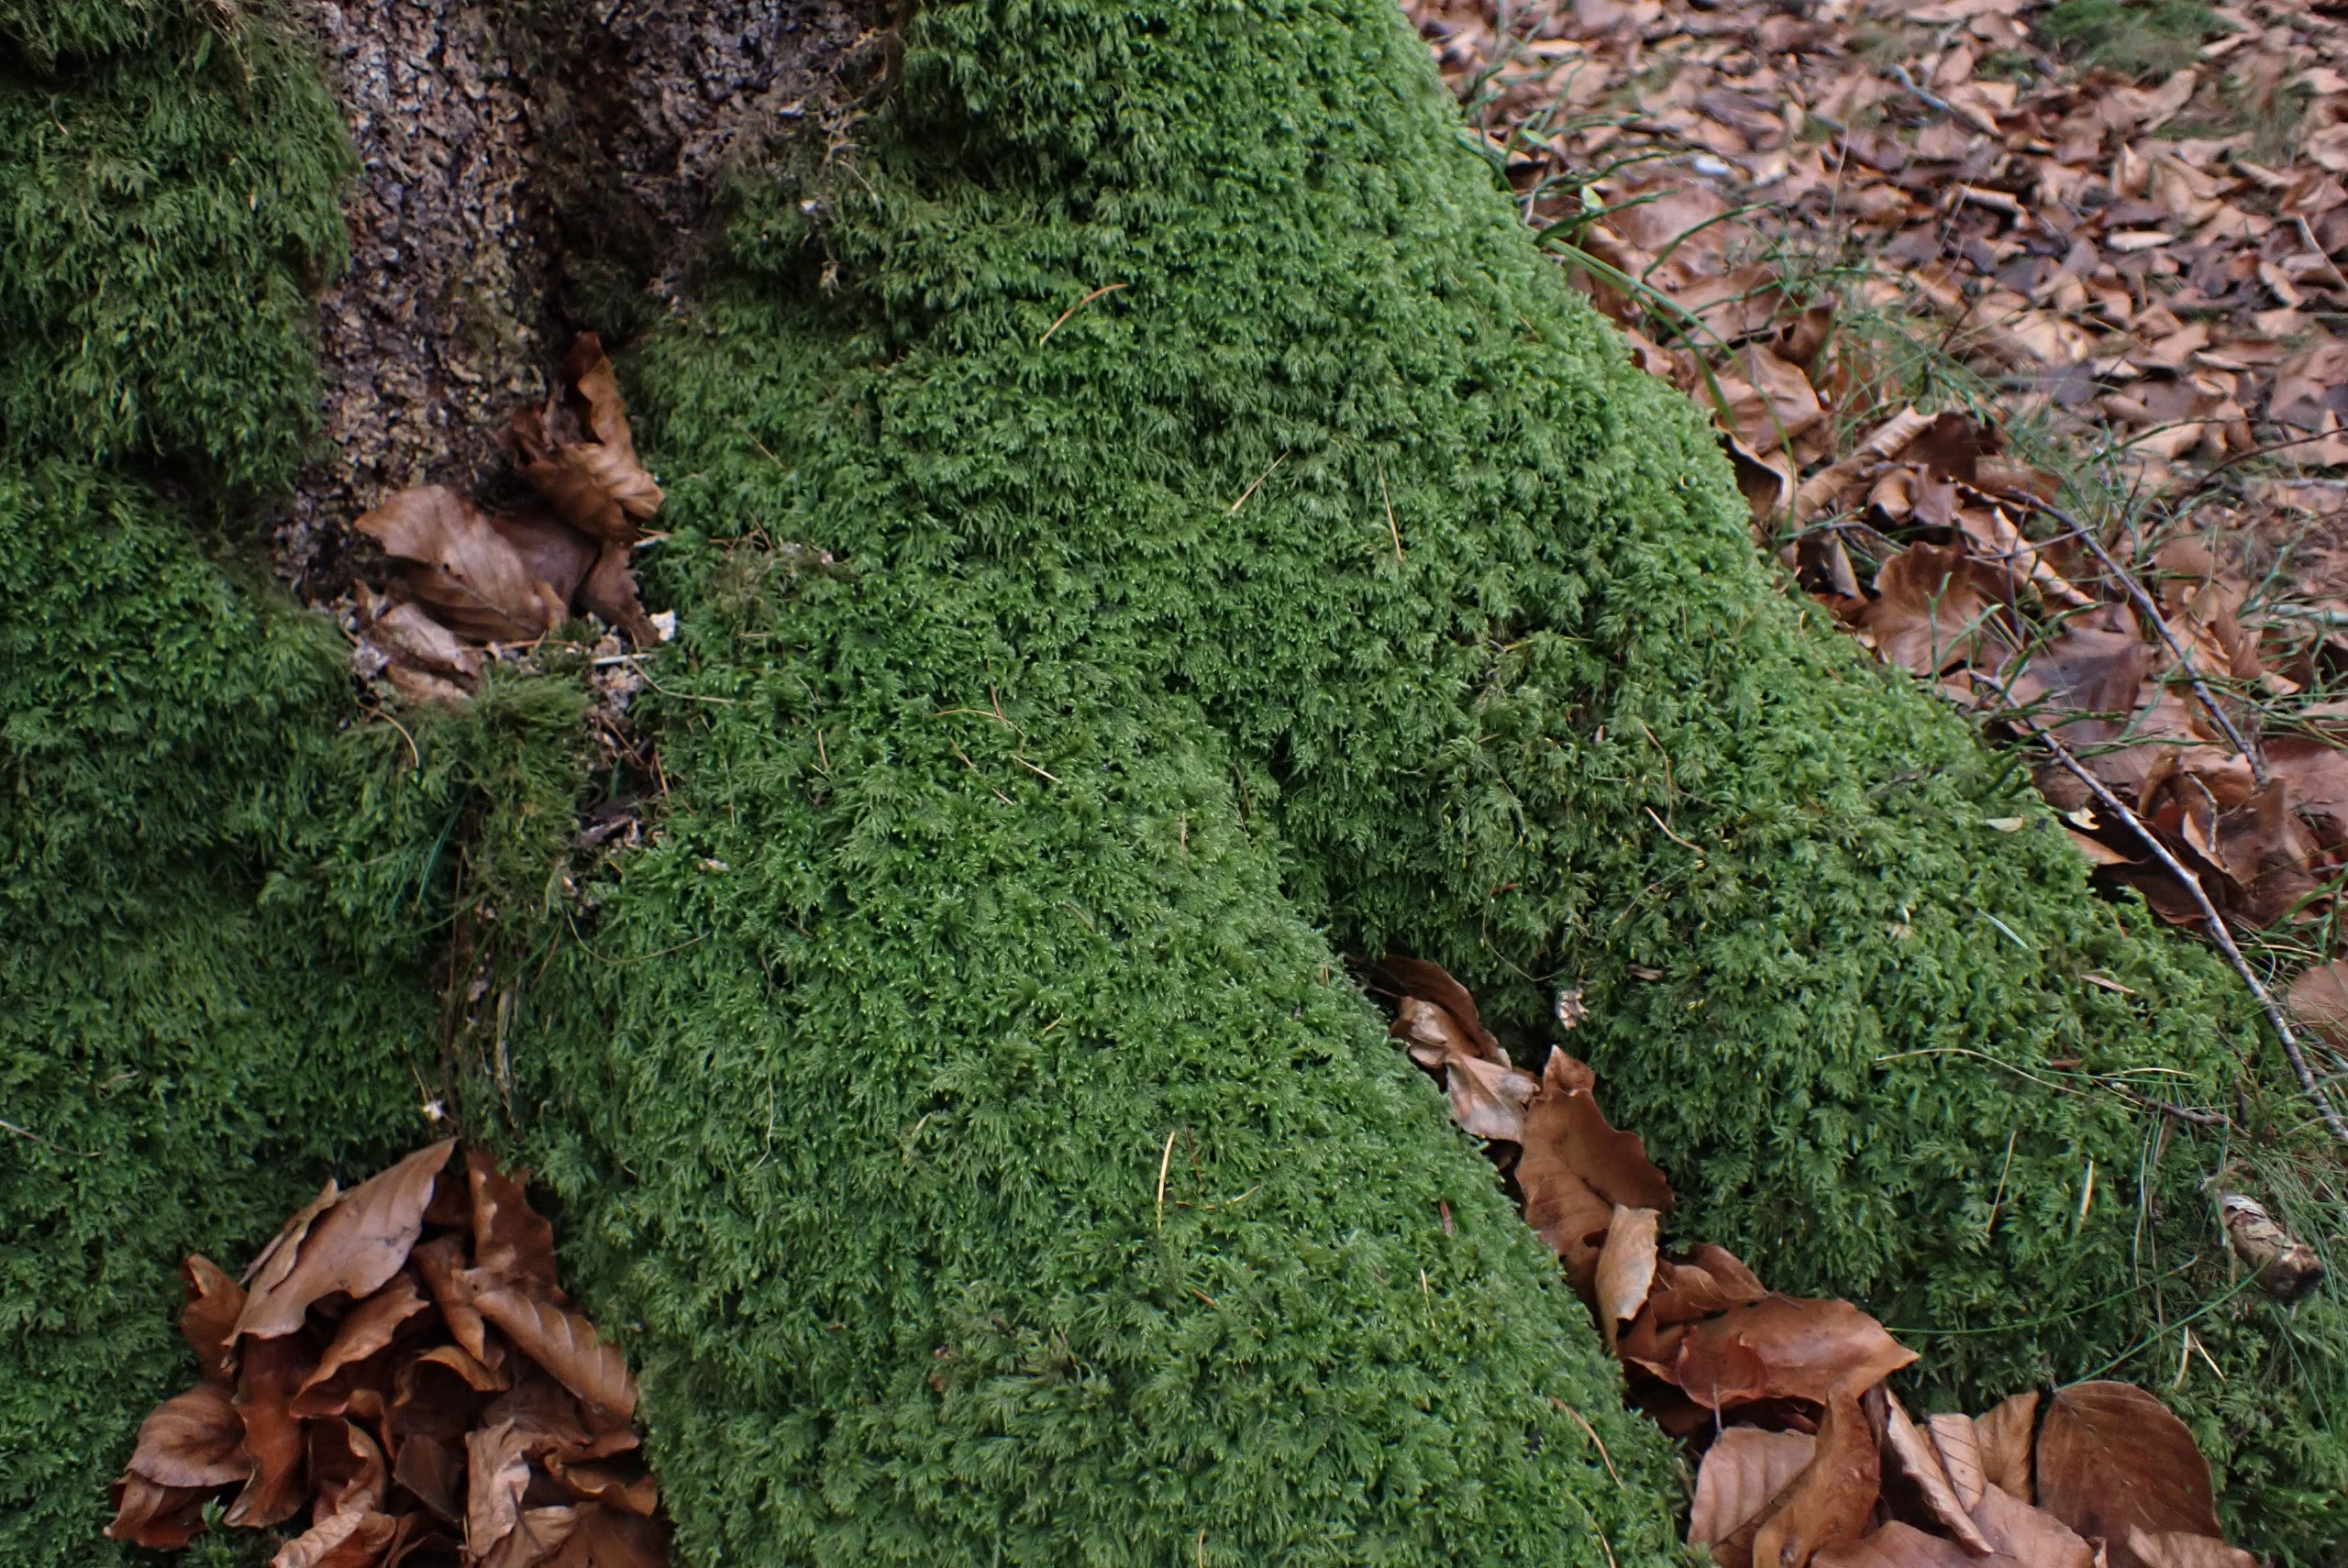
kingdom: Plantae
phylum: Bryophyta
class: Bryopsida
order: Hypnales
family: Lembophyllaceae
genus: Pseudisothecium
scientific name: Pseudisothecium myosuroides
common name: Slank stammemos
